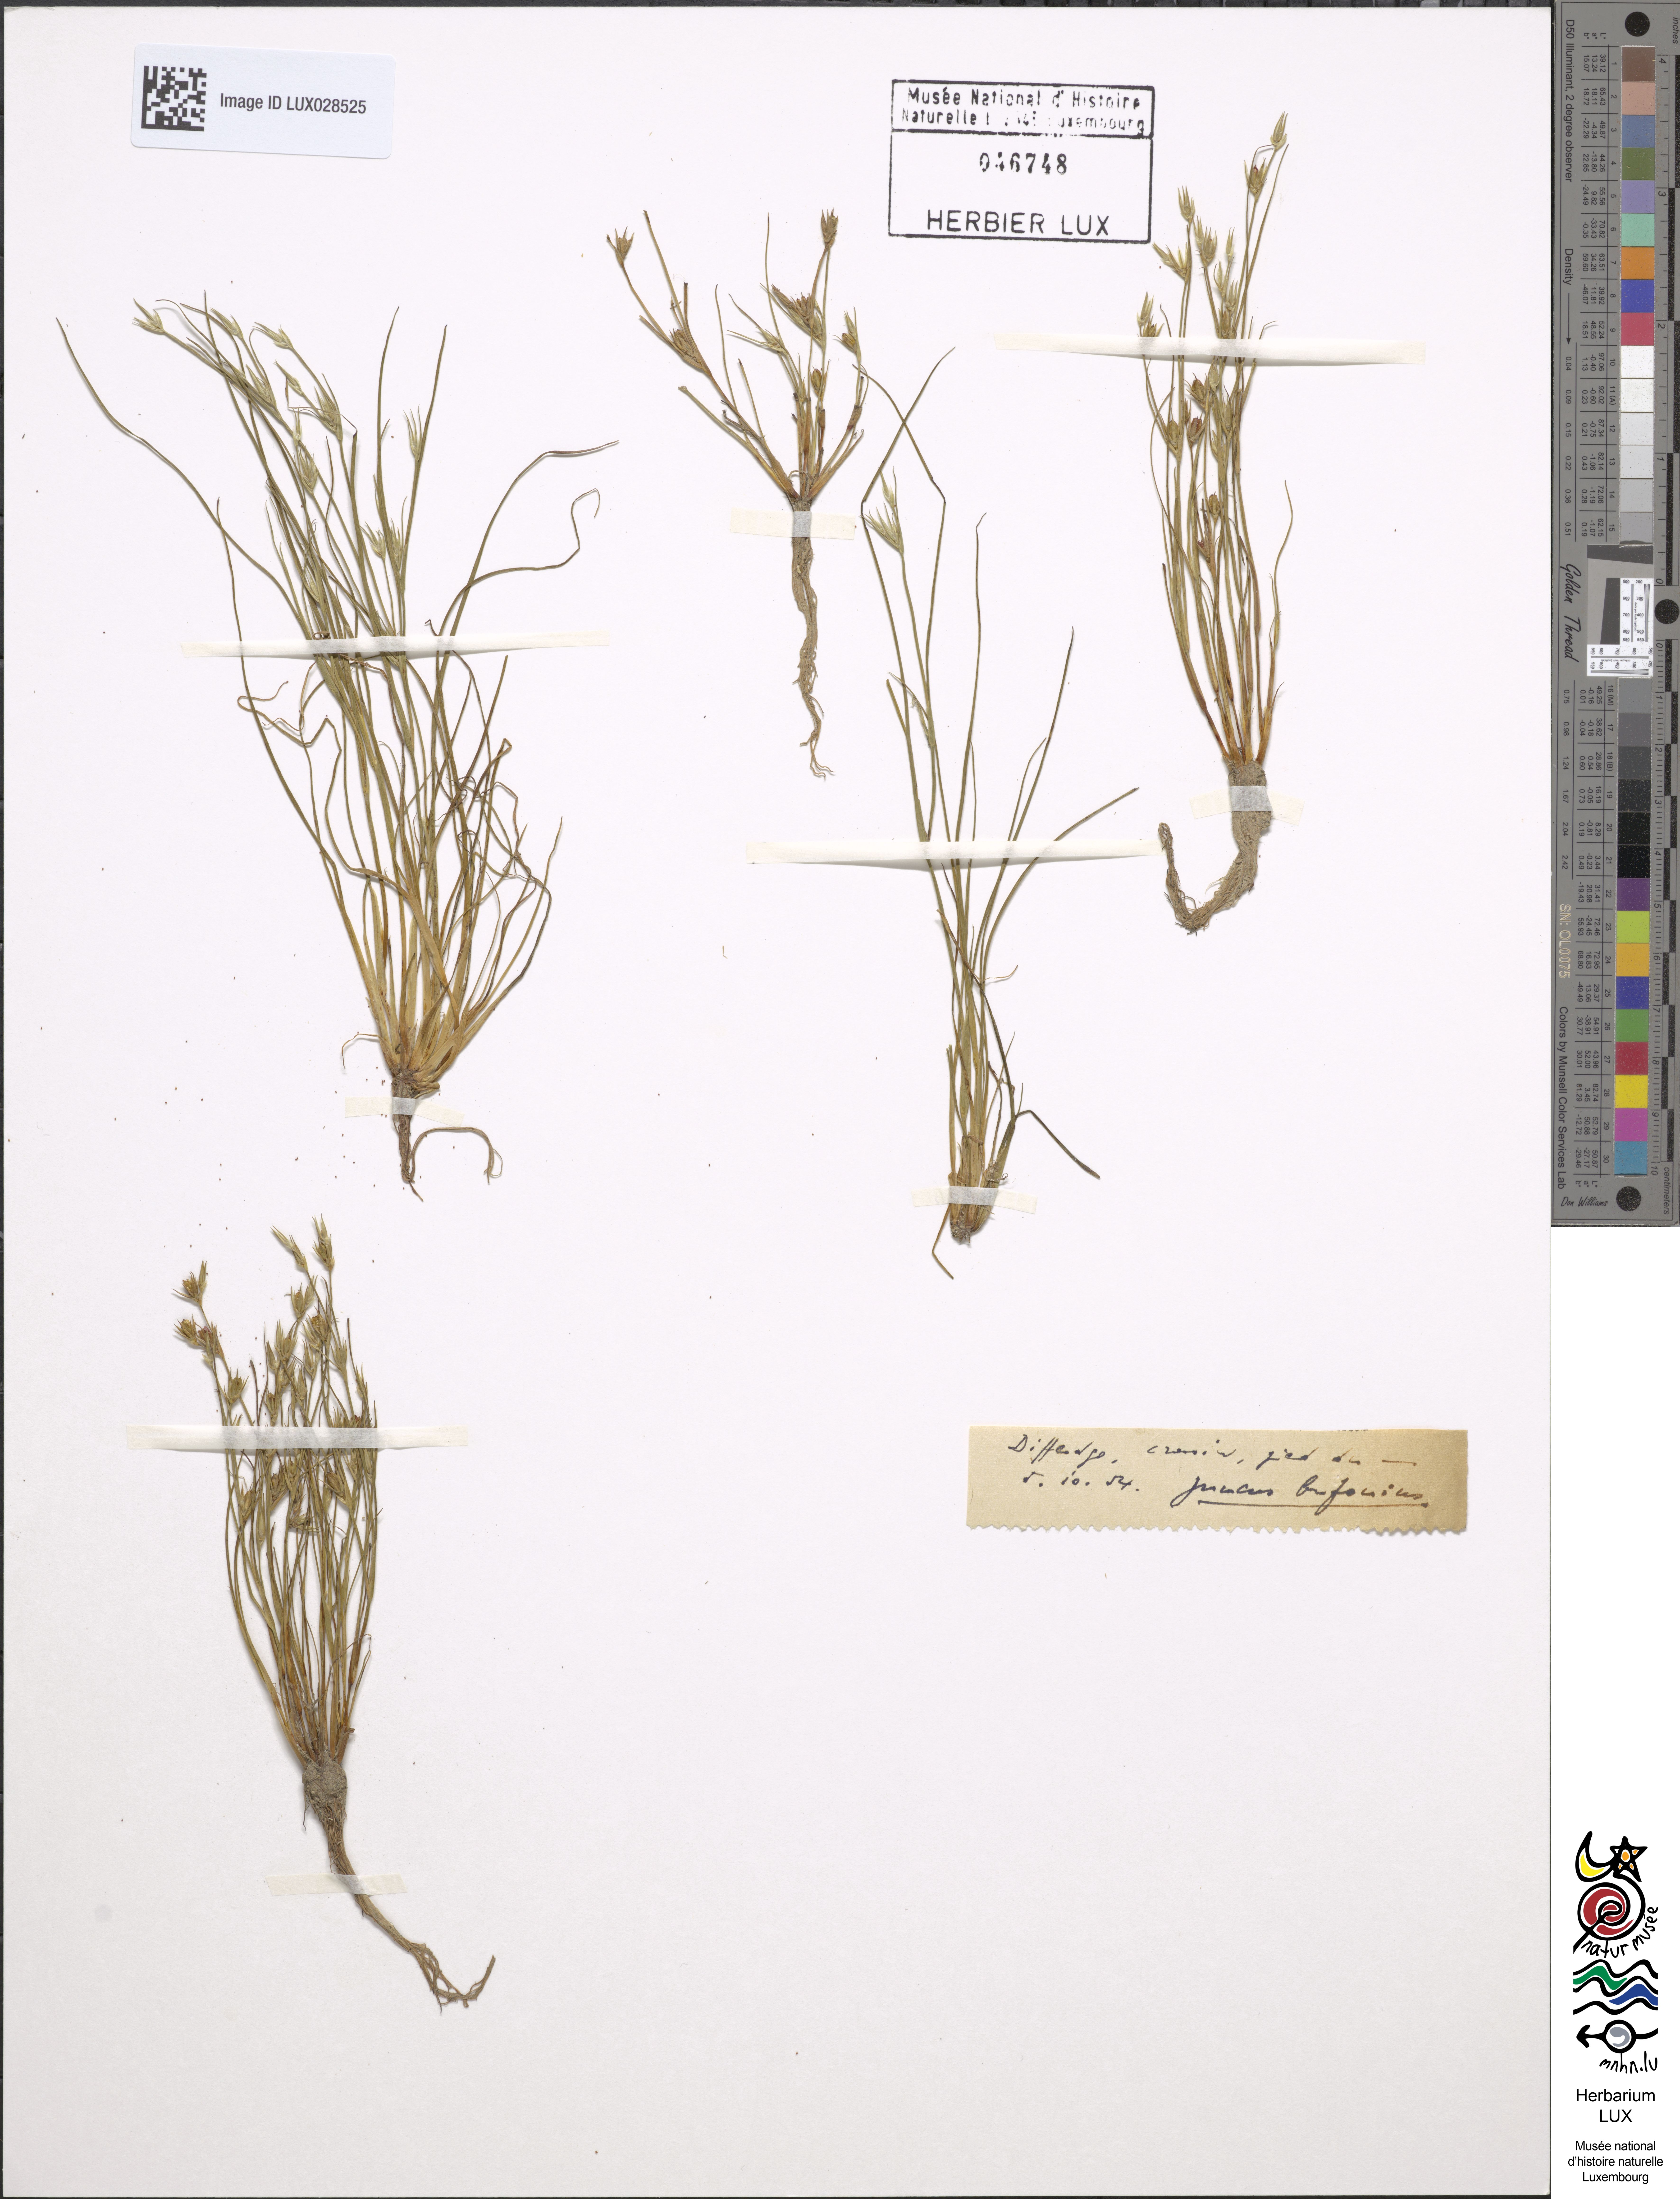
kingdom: Plantae
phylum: Tracheophyta
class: Liliopsida
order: Poales
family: Juncaceae
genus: Juncus
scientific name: Juncus bufonius
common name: Toad rush
